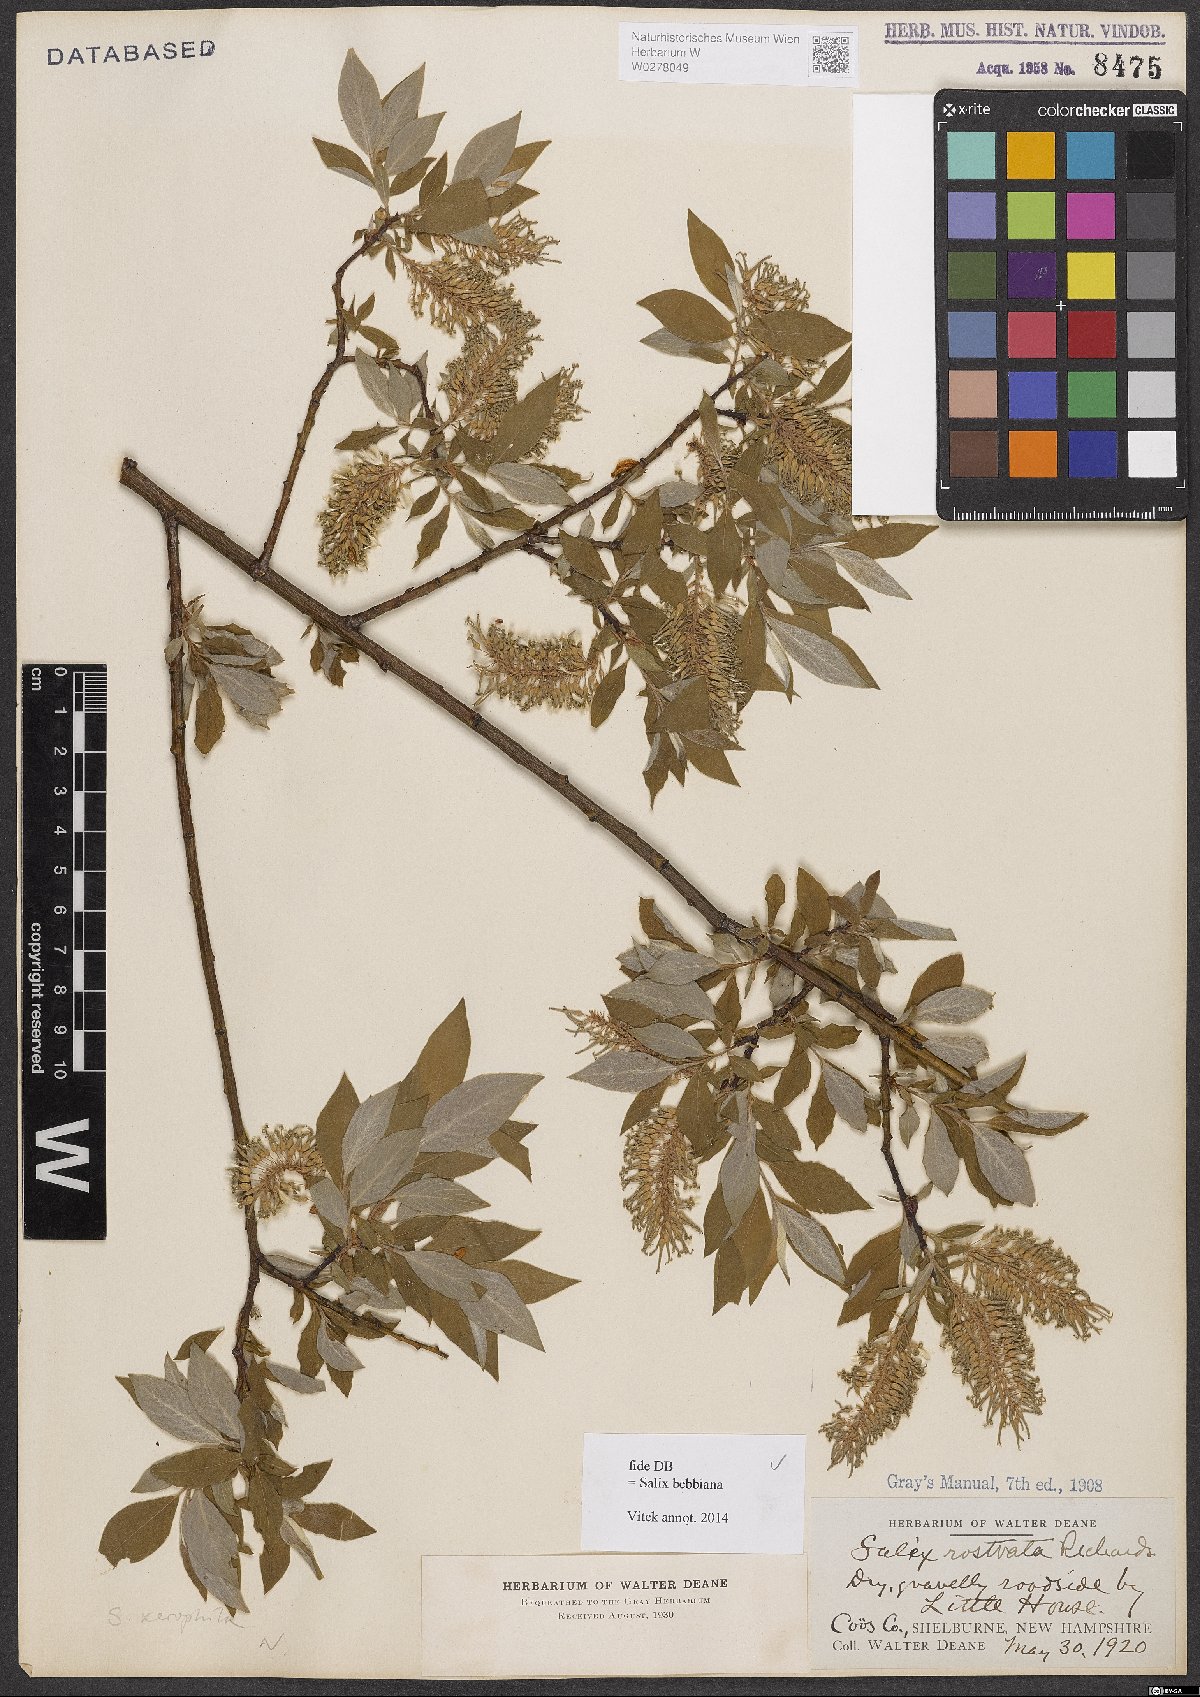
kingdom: Plantae
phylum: Tracheophyta
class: Magnoliopsida
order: Malpighiales
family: Salicaceae
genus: Salix
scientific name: Salix bebbiana
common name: Bebb's willow
